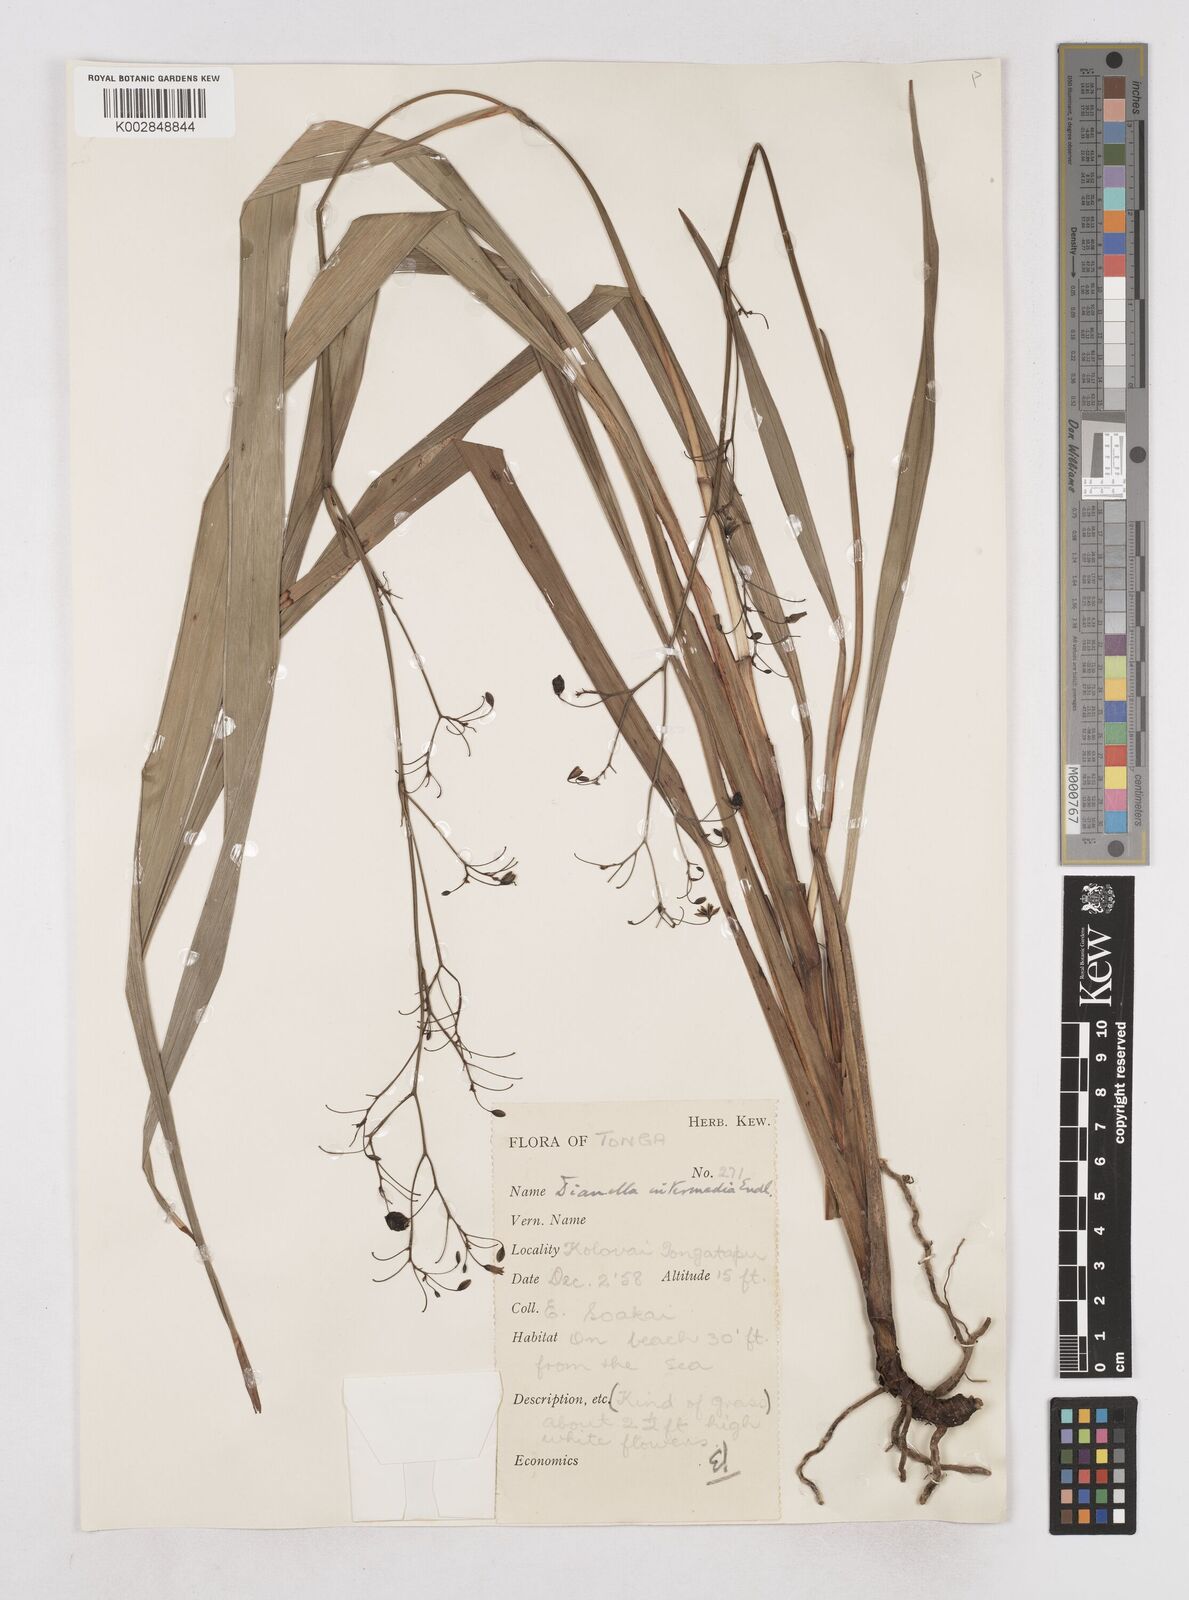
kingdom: Plantae
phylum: Tracheophyta
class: Liliopsida
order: Asparagales
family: Asphodelaceae
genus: Dianella
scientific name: Dianella intermedia
